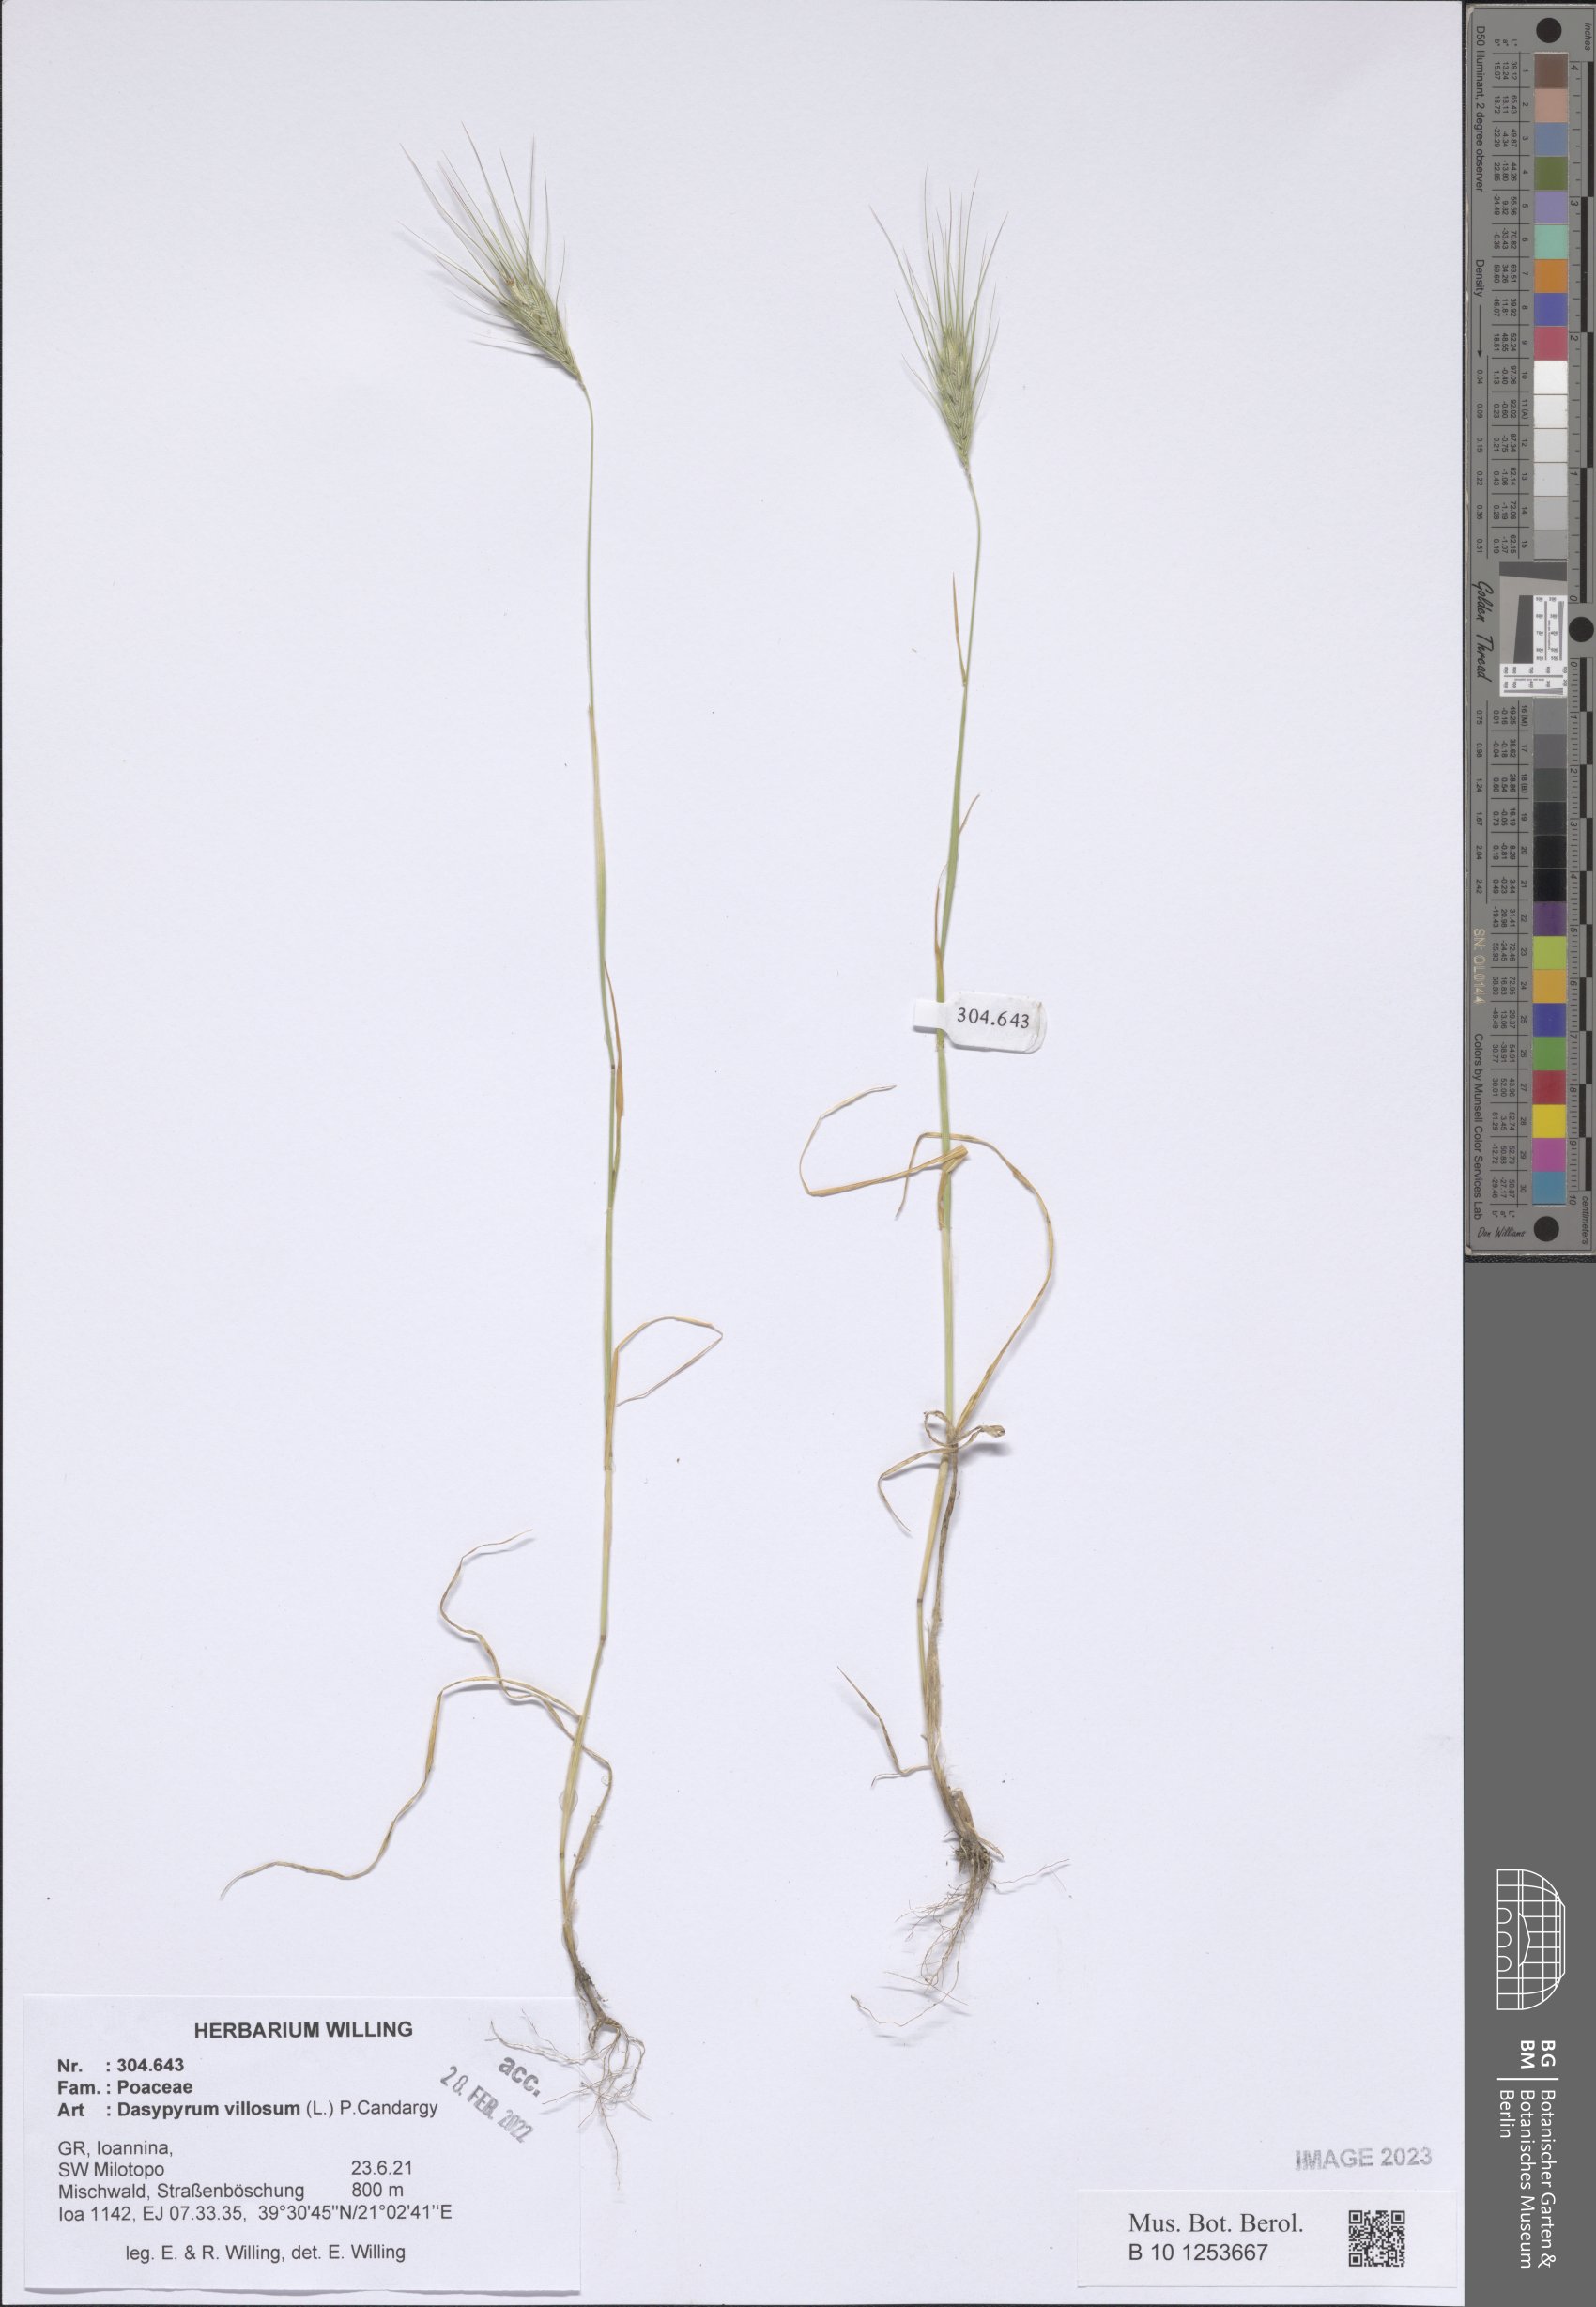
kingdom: Plantae
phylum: Tracheophyta
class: Liliopsida
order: Poales
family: Poaceae
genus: Dasypyrum
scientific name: Dasypyrum villosum
